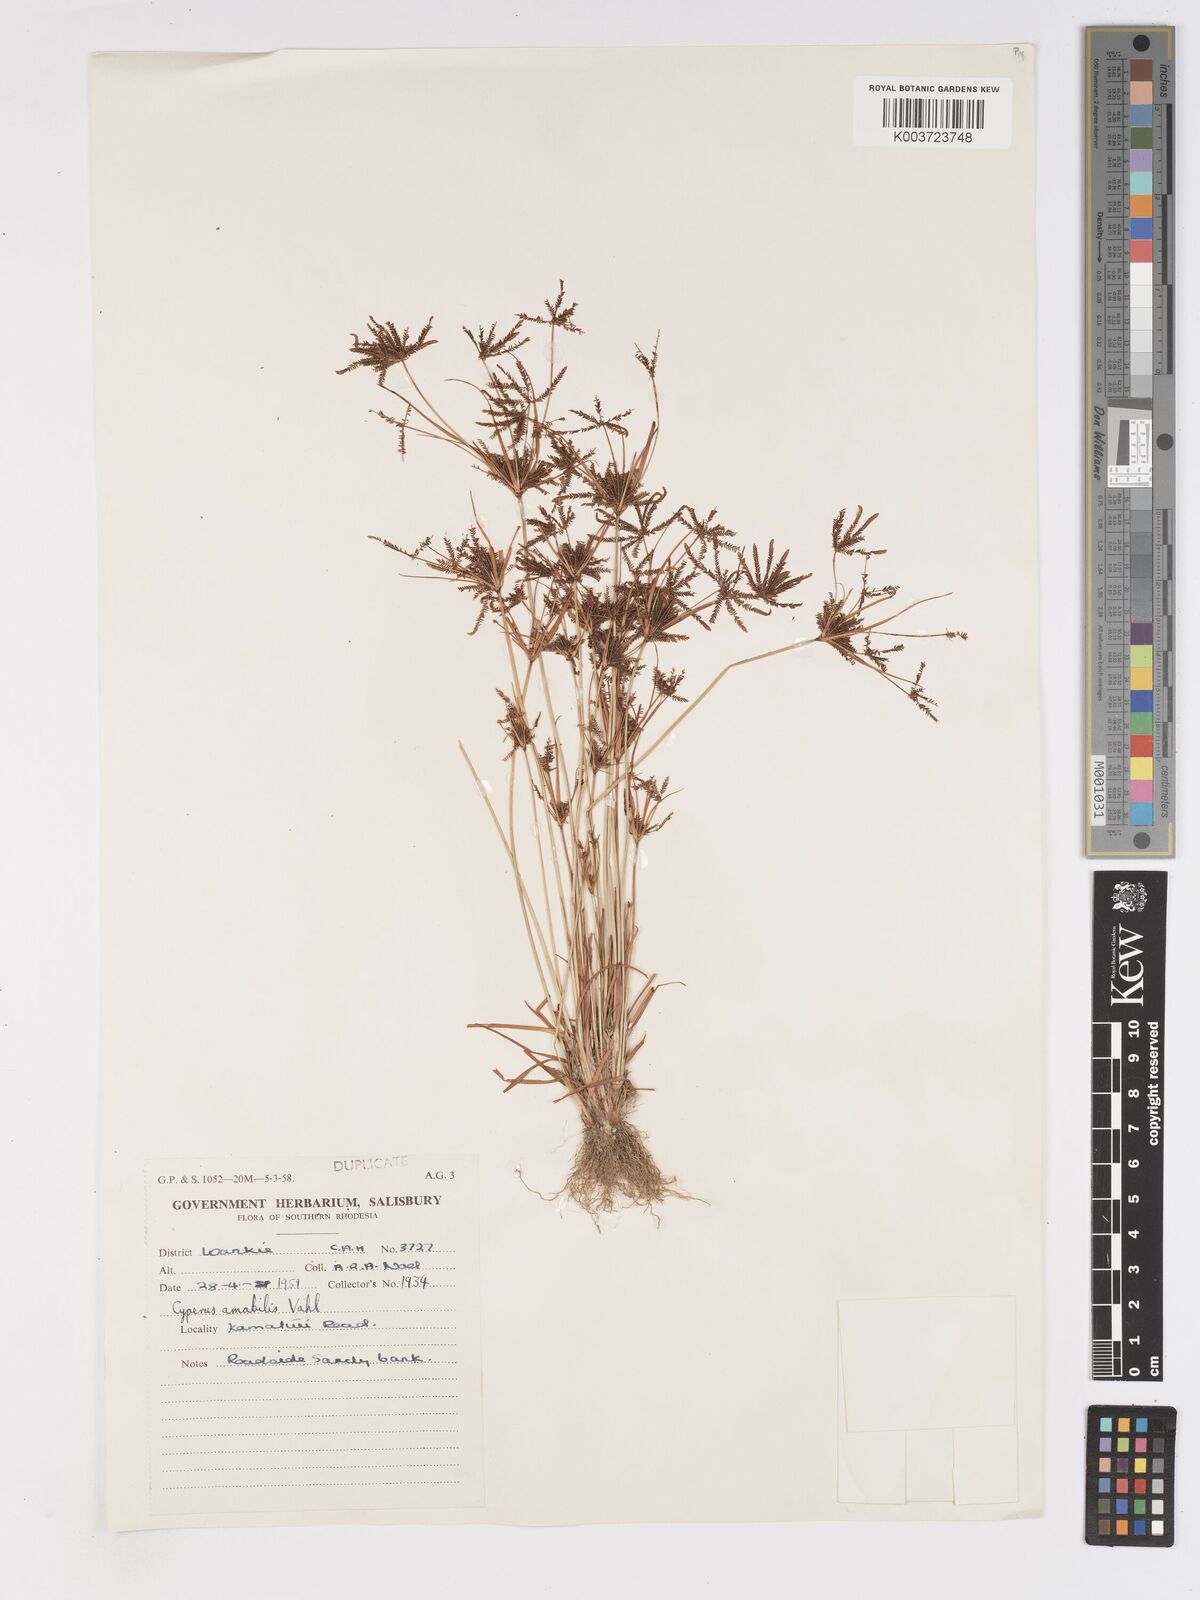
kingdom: Plantae
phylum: Tracheophyta
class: Liliopsida
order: Poales
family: Cyperaceae
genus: Cyperus
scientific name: Cyperus amabilis
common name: Foothill flat sedge
